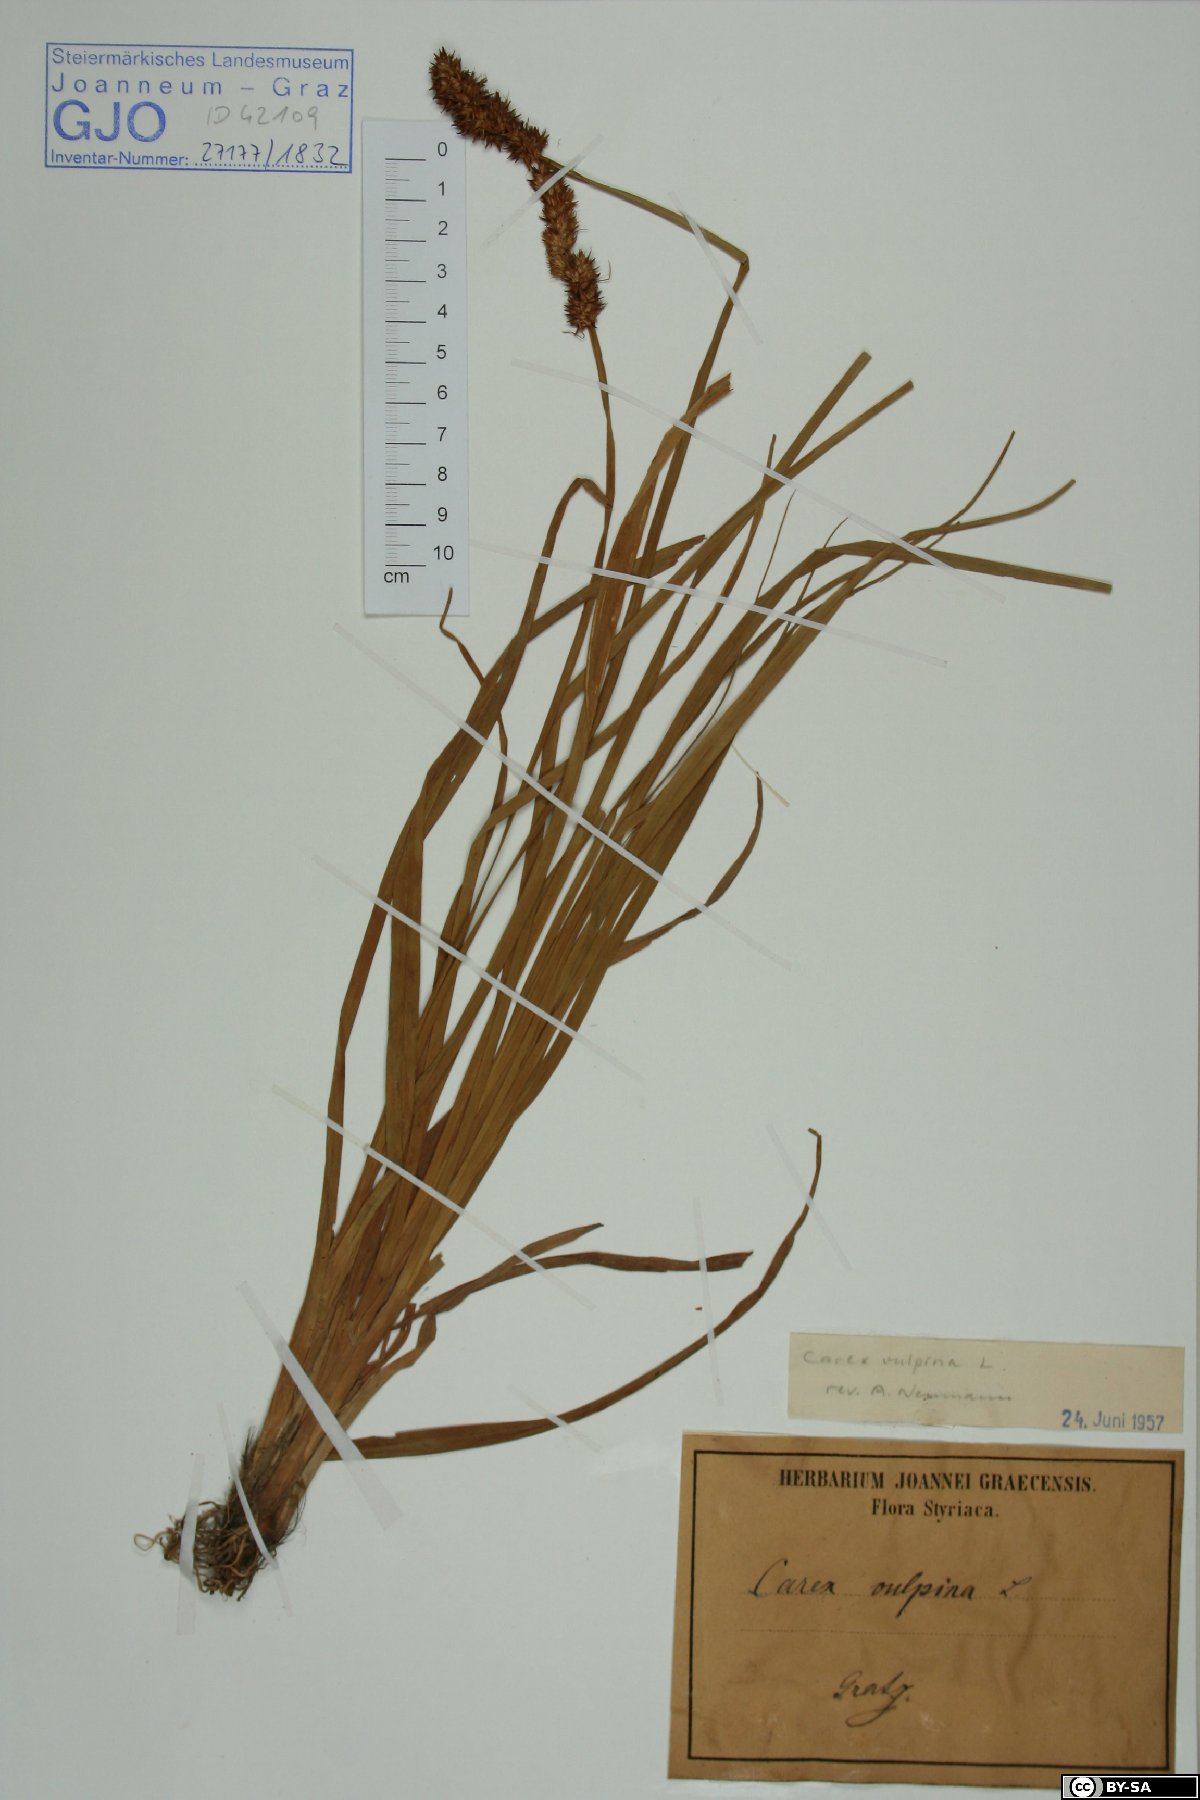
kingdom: Plantae
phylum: Tracheophyta
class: Liliopsida
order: Poales
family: Cyperaceae
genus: Carex
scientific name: Carex vulpina
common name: True fox-sedge
